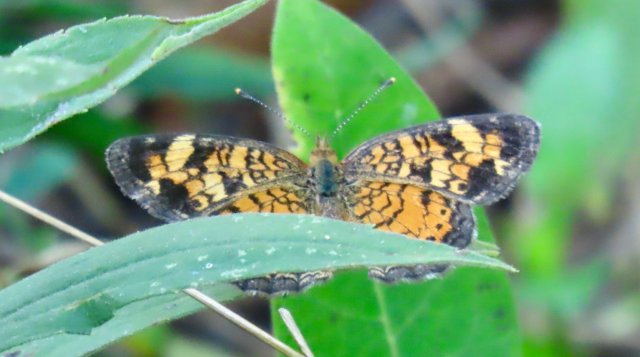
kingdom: Animalia
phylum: Arthropoda
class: Insecta
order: Lepidoptera
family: Nymphalidae
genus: Phyciodes
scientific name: Phyciodes tharos
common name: Pearl Crescent
